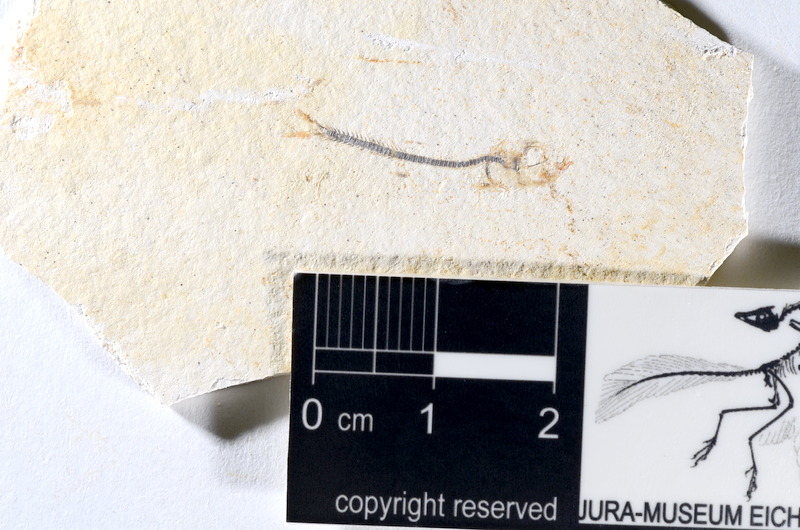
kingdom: Animalia
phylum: Chordata
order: Salmoniformes
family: Orthogonikleithridae
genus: Orthogonikleithrus
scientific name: Orthogonikleithrus hoelli
